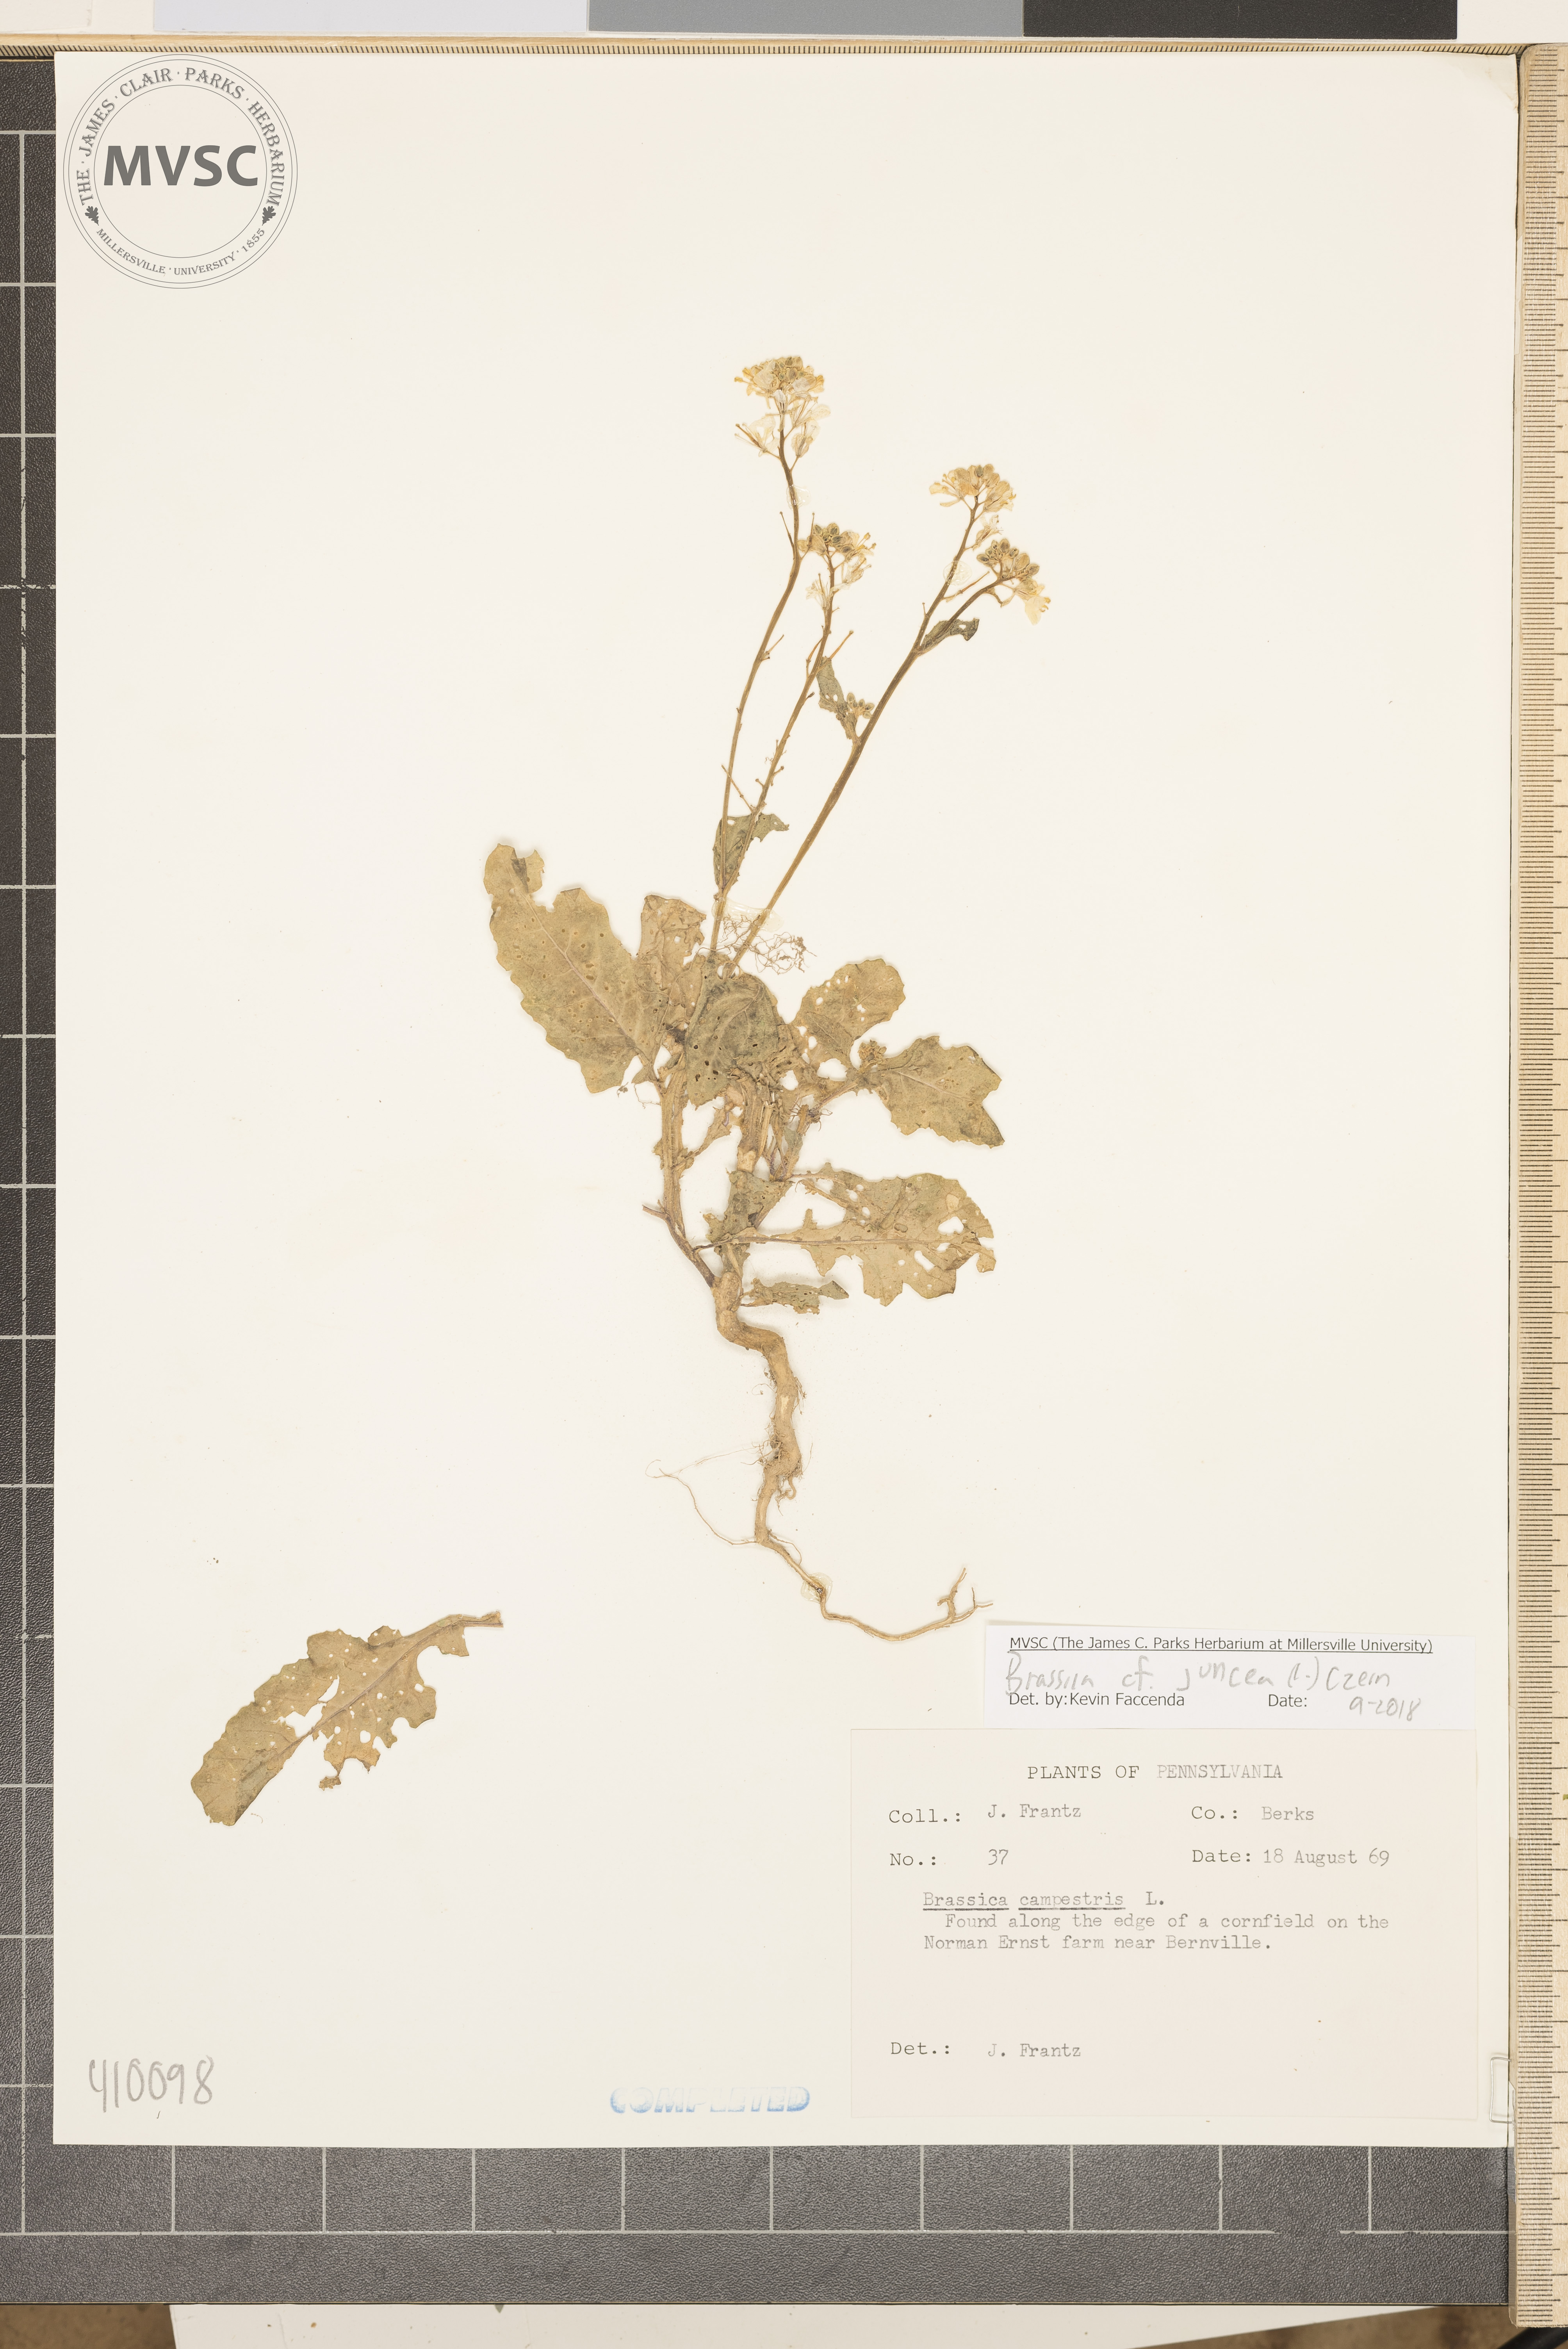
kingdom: Plantae
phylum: Tracheophyta
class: Magnoliopsida
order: Brassicales
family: Brassicaceae
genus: Brassica
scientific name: Brassica rapa
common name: Field mustard
